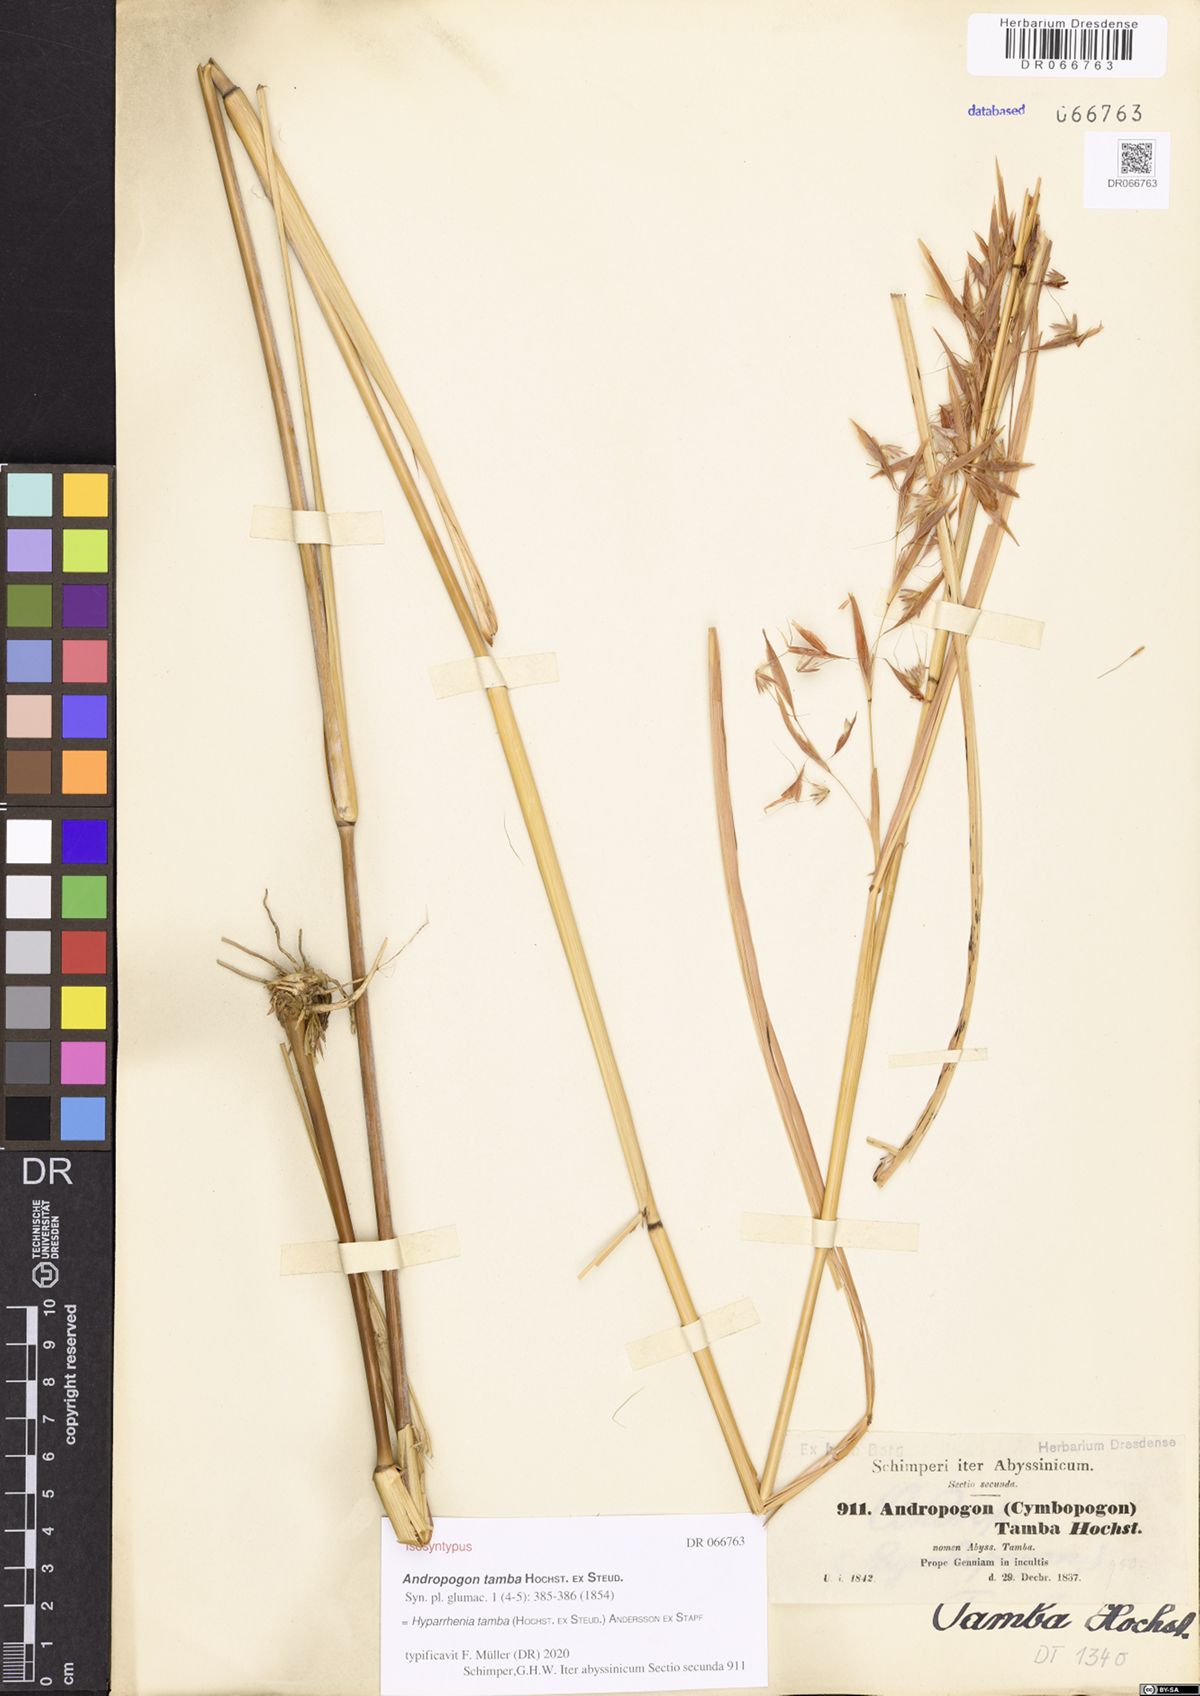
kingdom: Plantae
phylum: Tracheophyta
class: Liliopsida
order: Poales
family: Poaceae
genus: Hyparrhenia
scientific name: Hyparrhenia tamba
